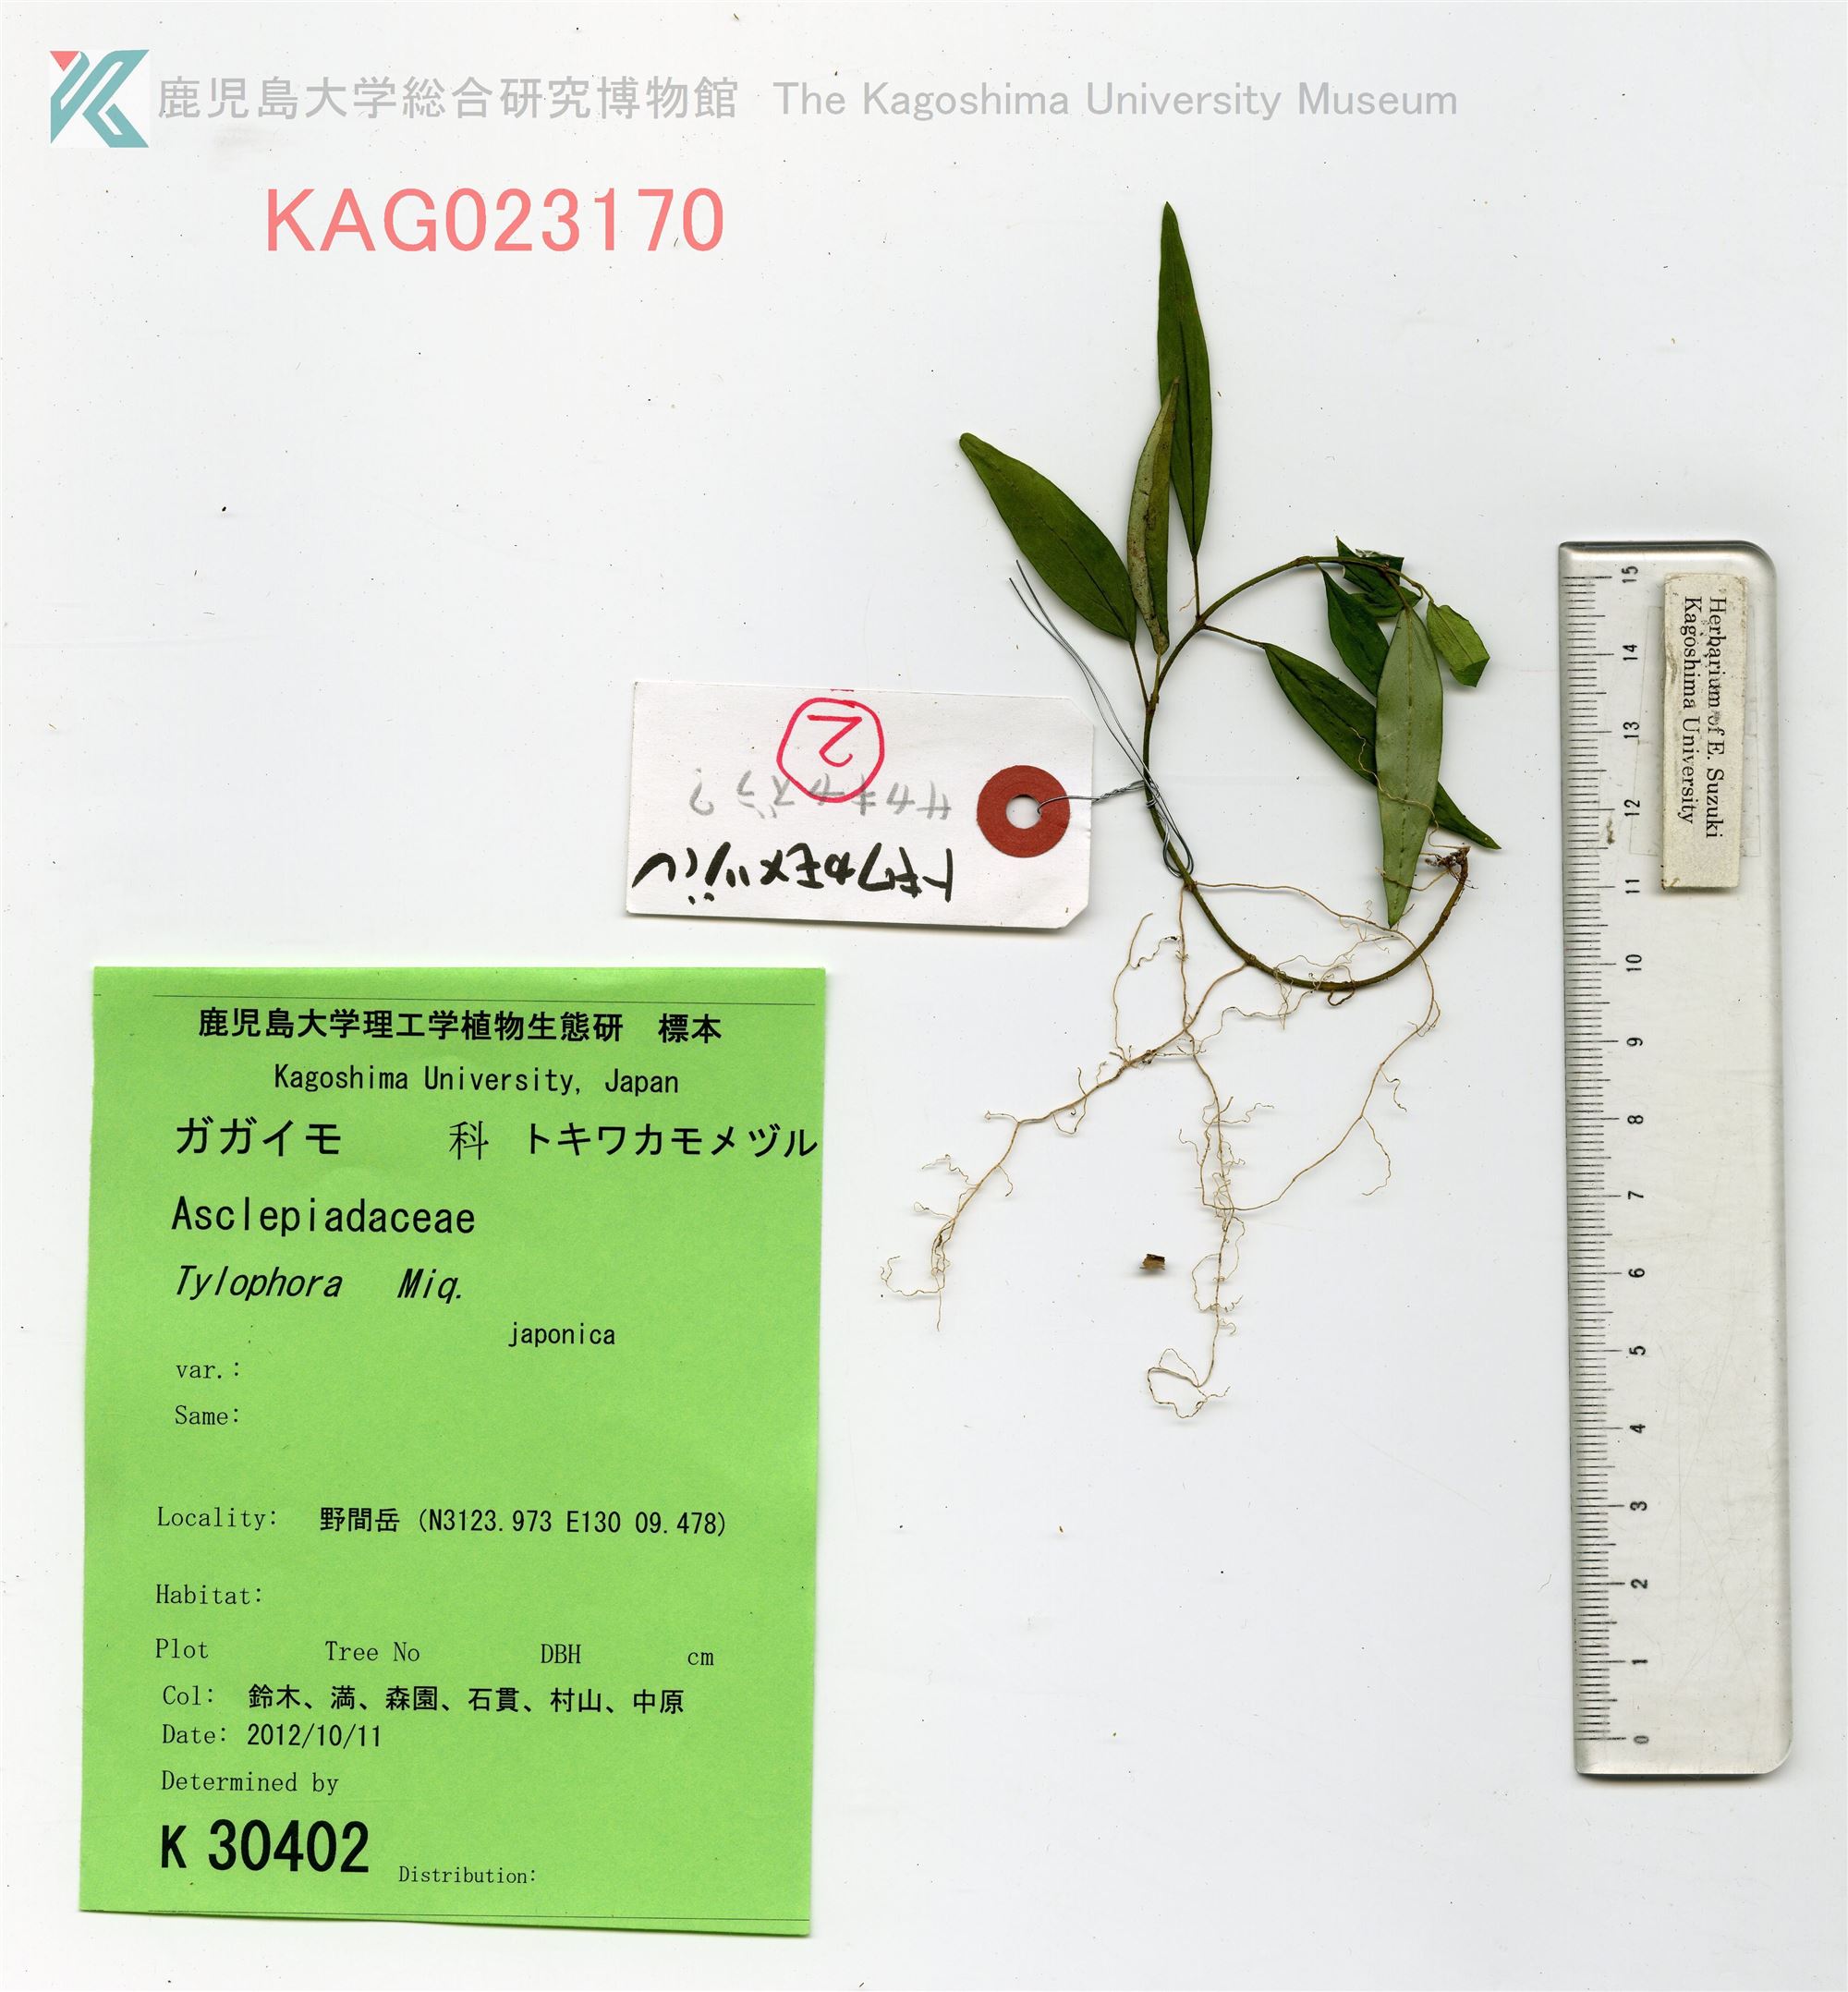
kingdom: Plantae
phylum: Tracheophyta
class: Magnoliopsida
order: Gentianales
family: Apocynaceae
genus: Vincetoxicum
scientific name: Vincetoxicum sieboldii
